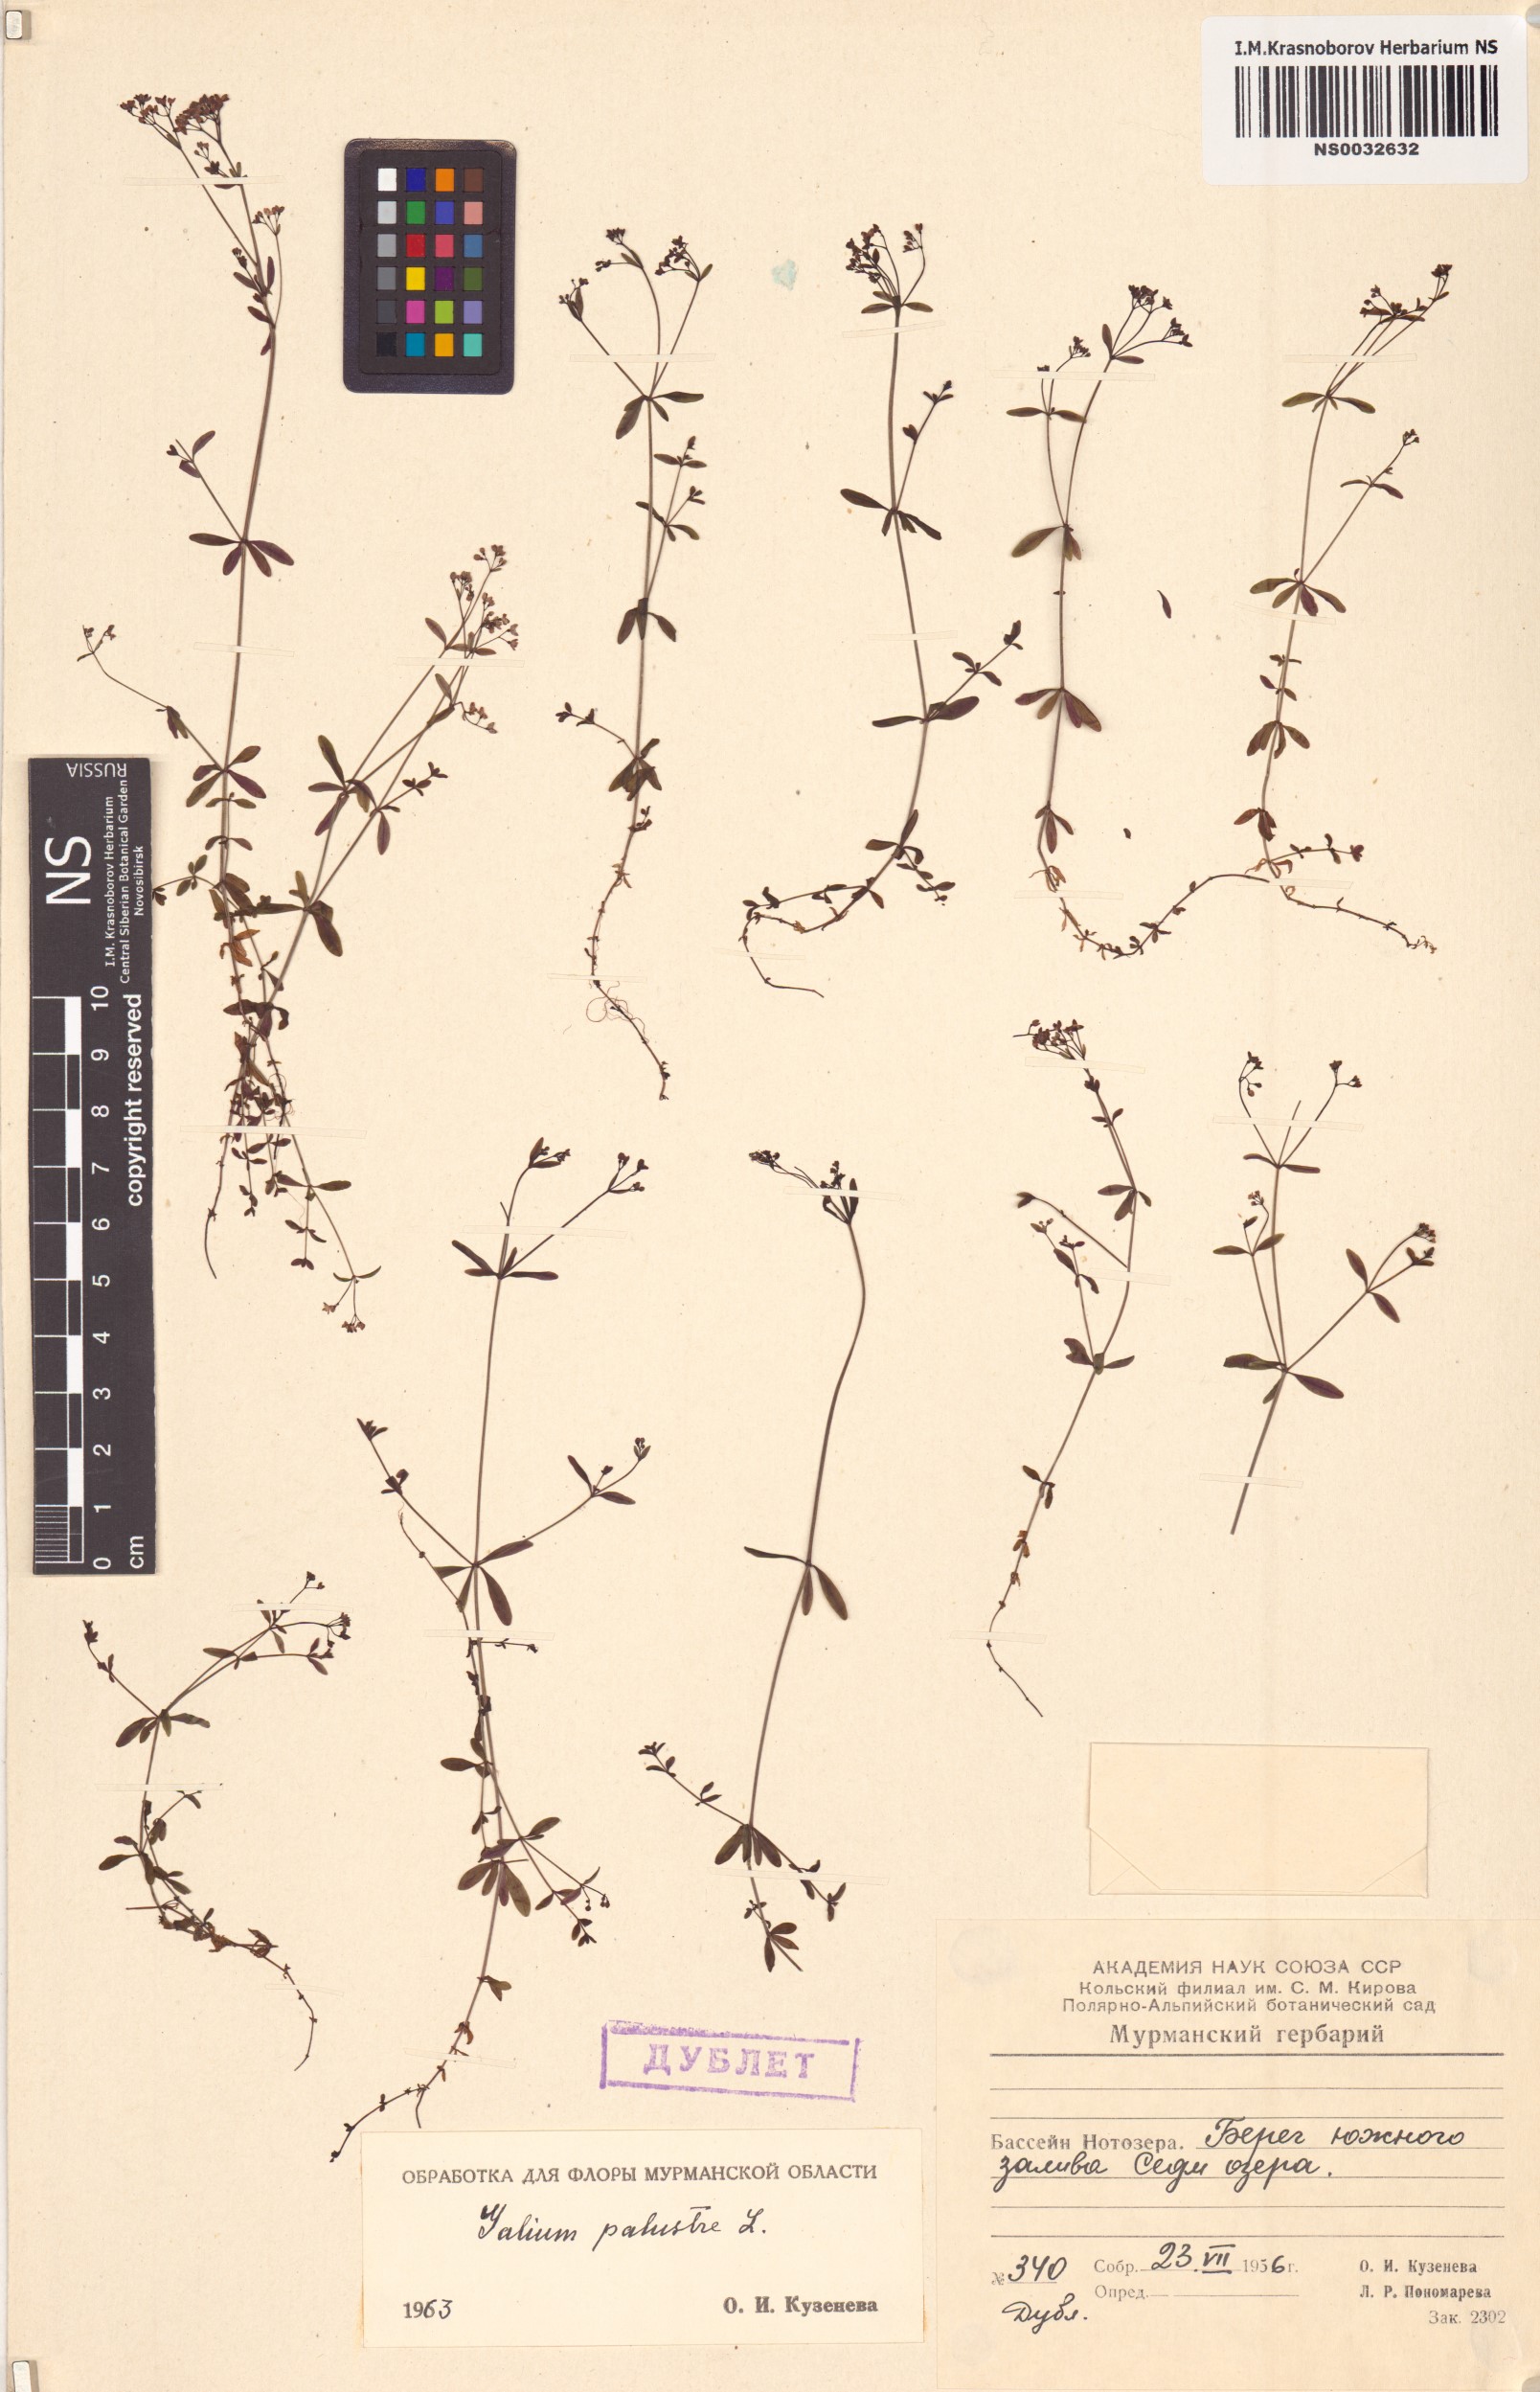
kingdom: Plantae
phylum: Tracheophyta
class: Magnoliopsida
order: Gentianales
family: Rubiaceae
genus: Galium
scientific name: Galium palustre
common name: Common marsh-bedstraw
